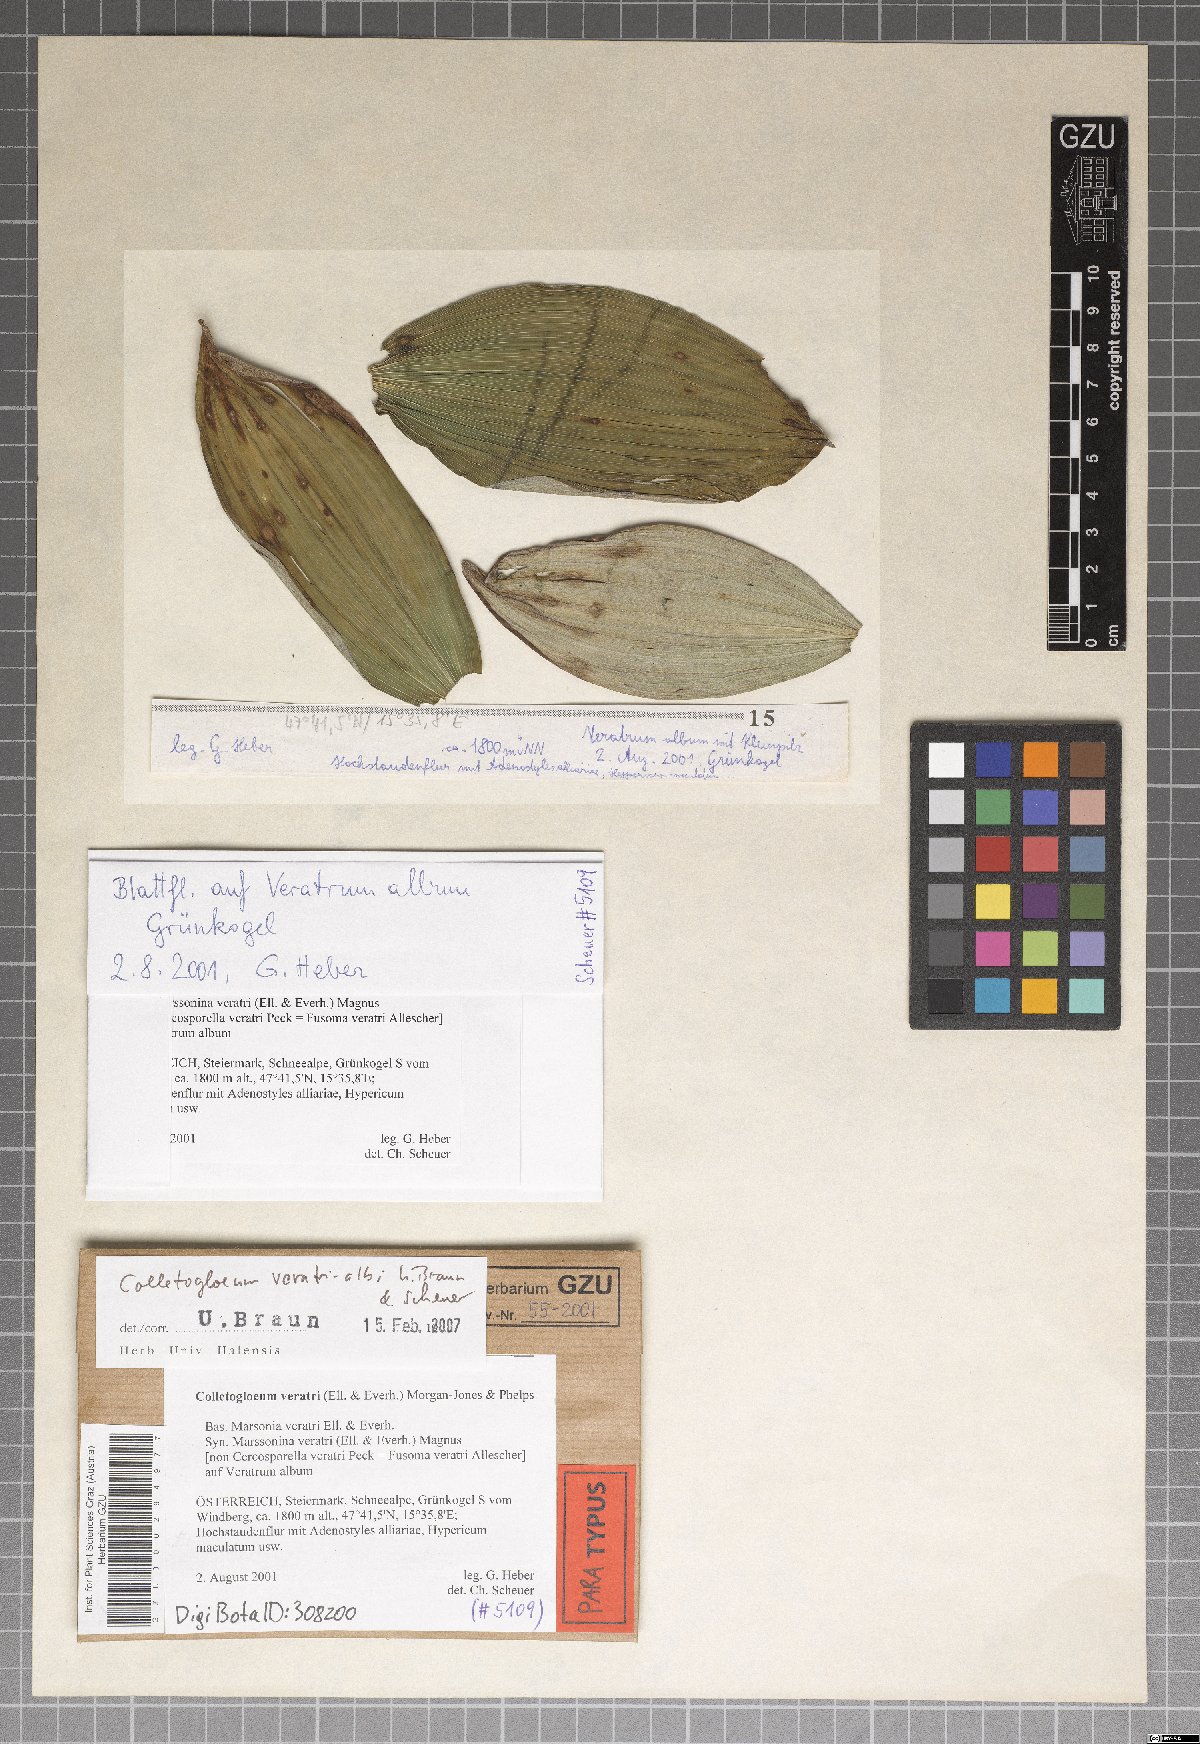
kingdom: Fungi
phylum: Ascomycota
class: Dothideomycetes
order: Mycosphaerellales
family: Mycosphaerellaceae
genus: Colletogloeum
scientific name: Colletogloeum veratri-albi
